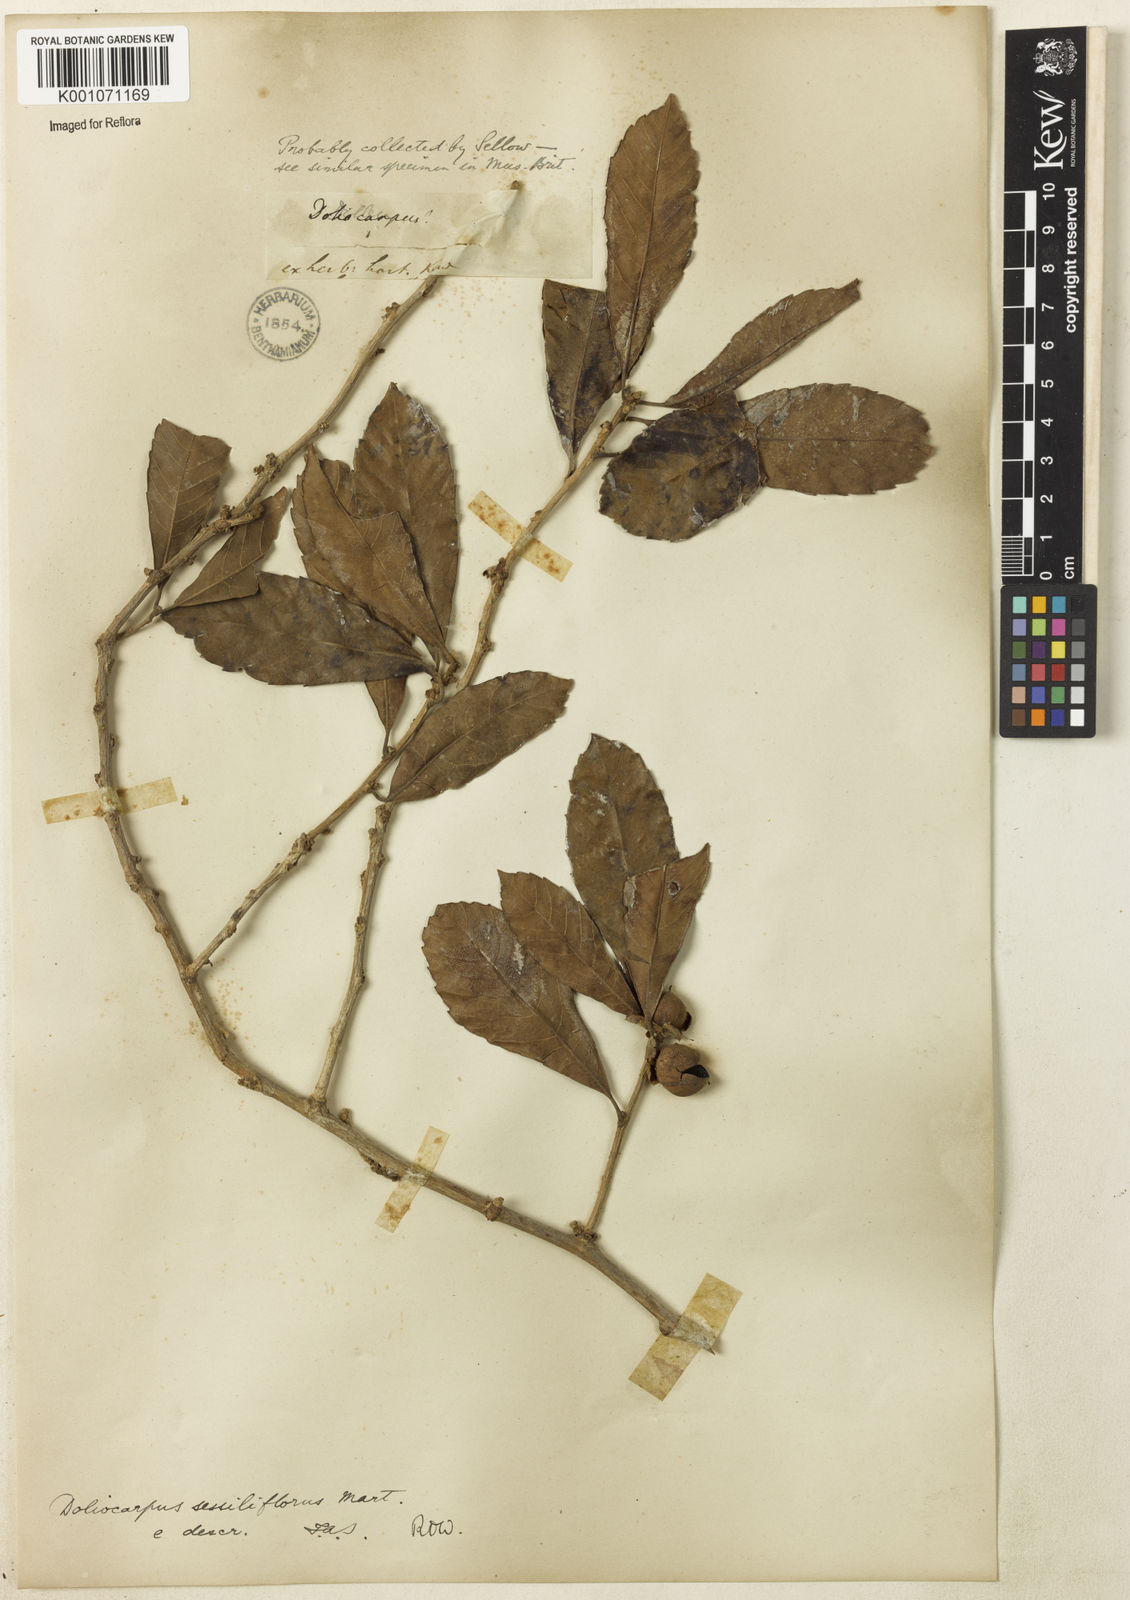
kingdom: Plantae
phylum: Tracheophyta
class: Magnoliopsida
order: Dilleniales
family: Dilleniaceae
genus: Doliocarpus
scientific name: Doliocarpus sessiliflorus
